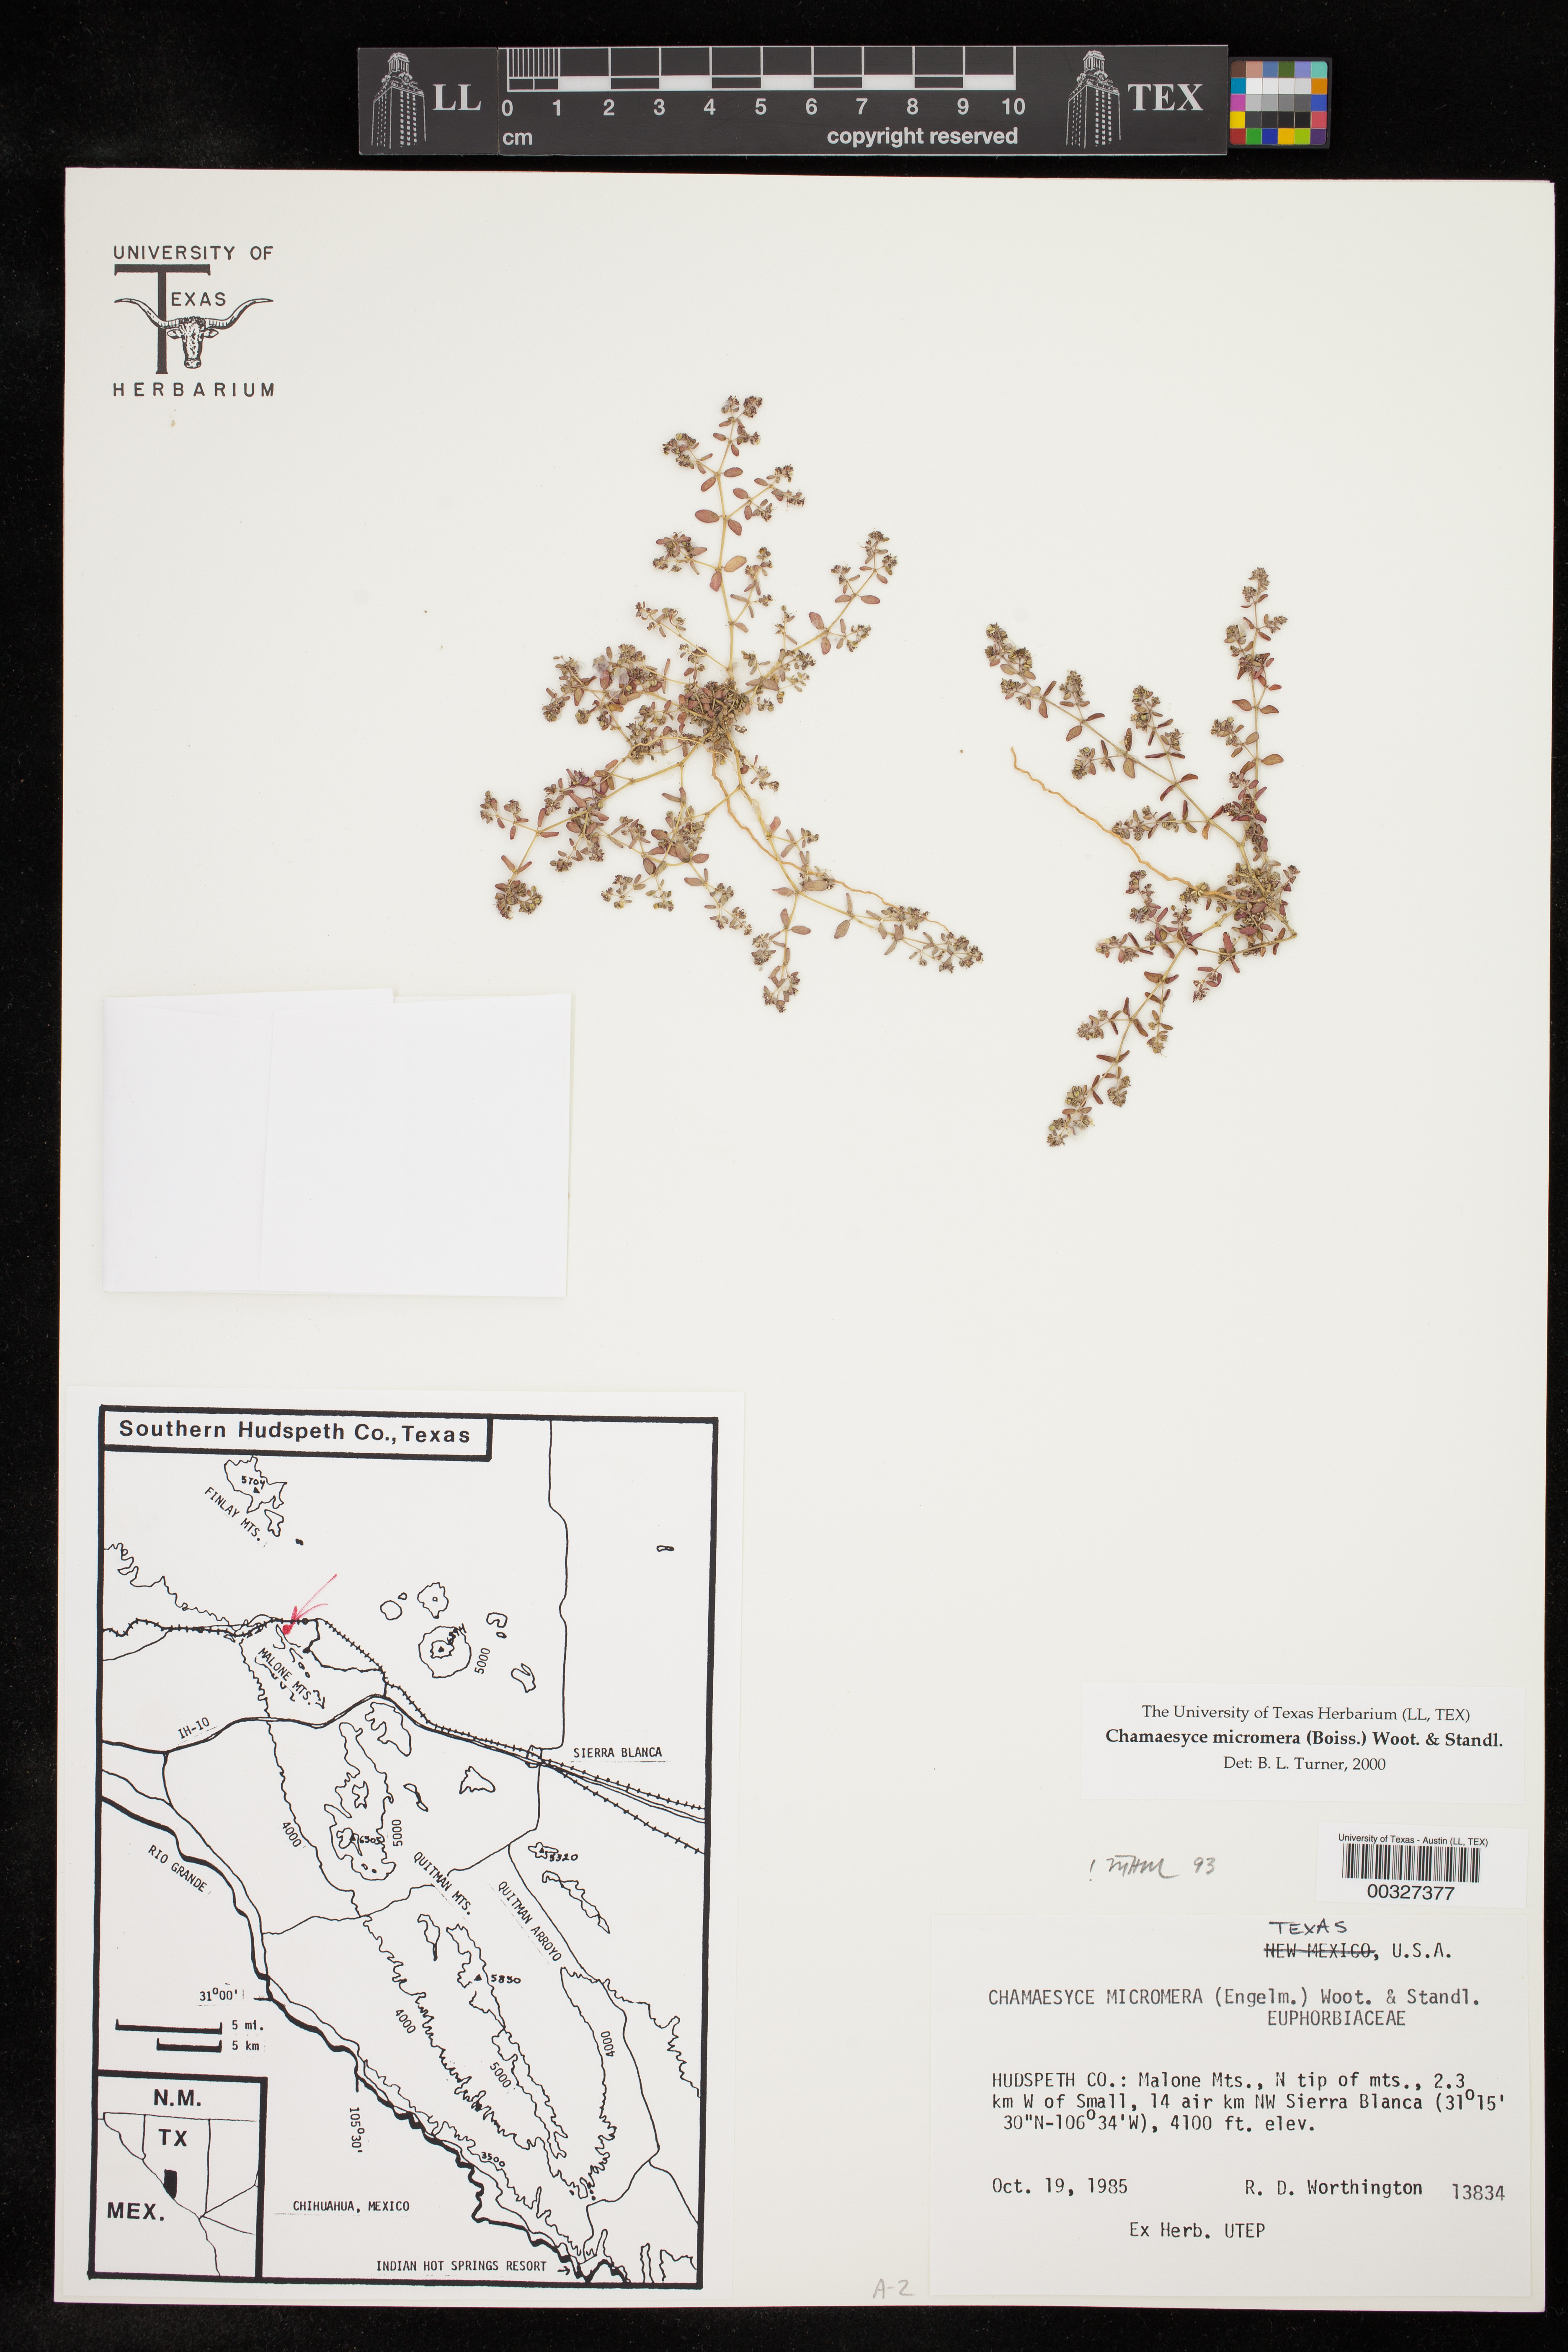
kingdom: Plantae
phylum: Tracheophyta
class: Magnoliopsida
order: Malpighiales
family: Euphorbiaceae
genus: Euphorbia
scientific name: Euphorbia micromera
